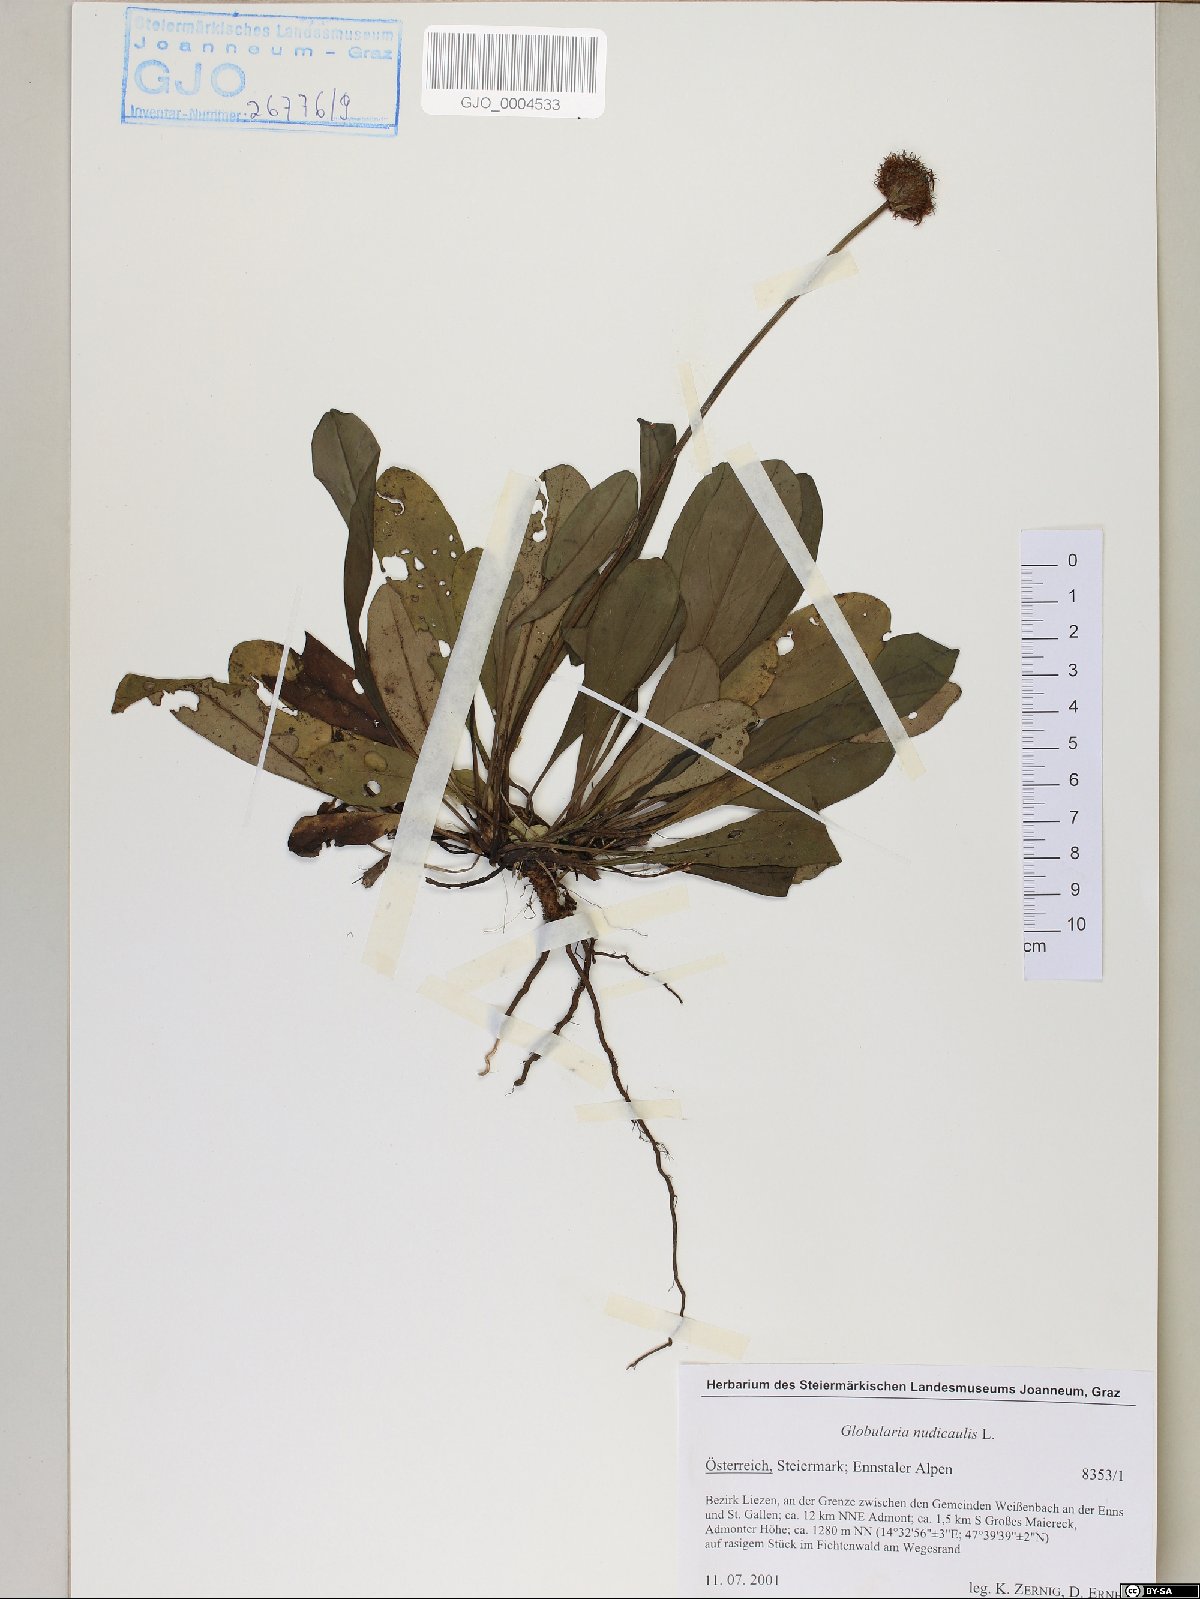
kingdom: Plantae
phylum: Tracheophyta
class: Magnoliopsida
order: Lamiales
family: Plantaginaceae
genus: Globularia
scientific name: Globularia nudicaulis
